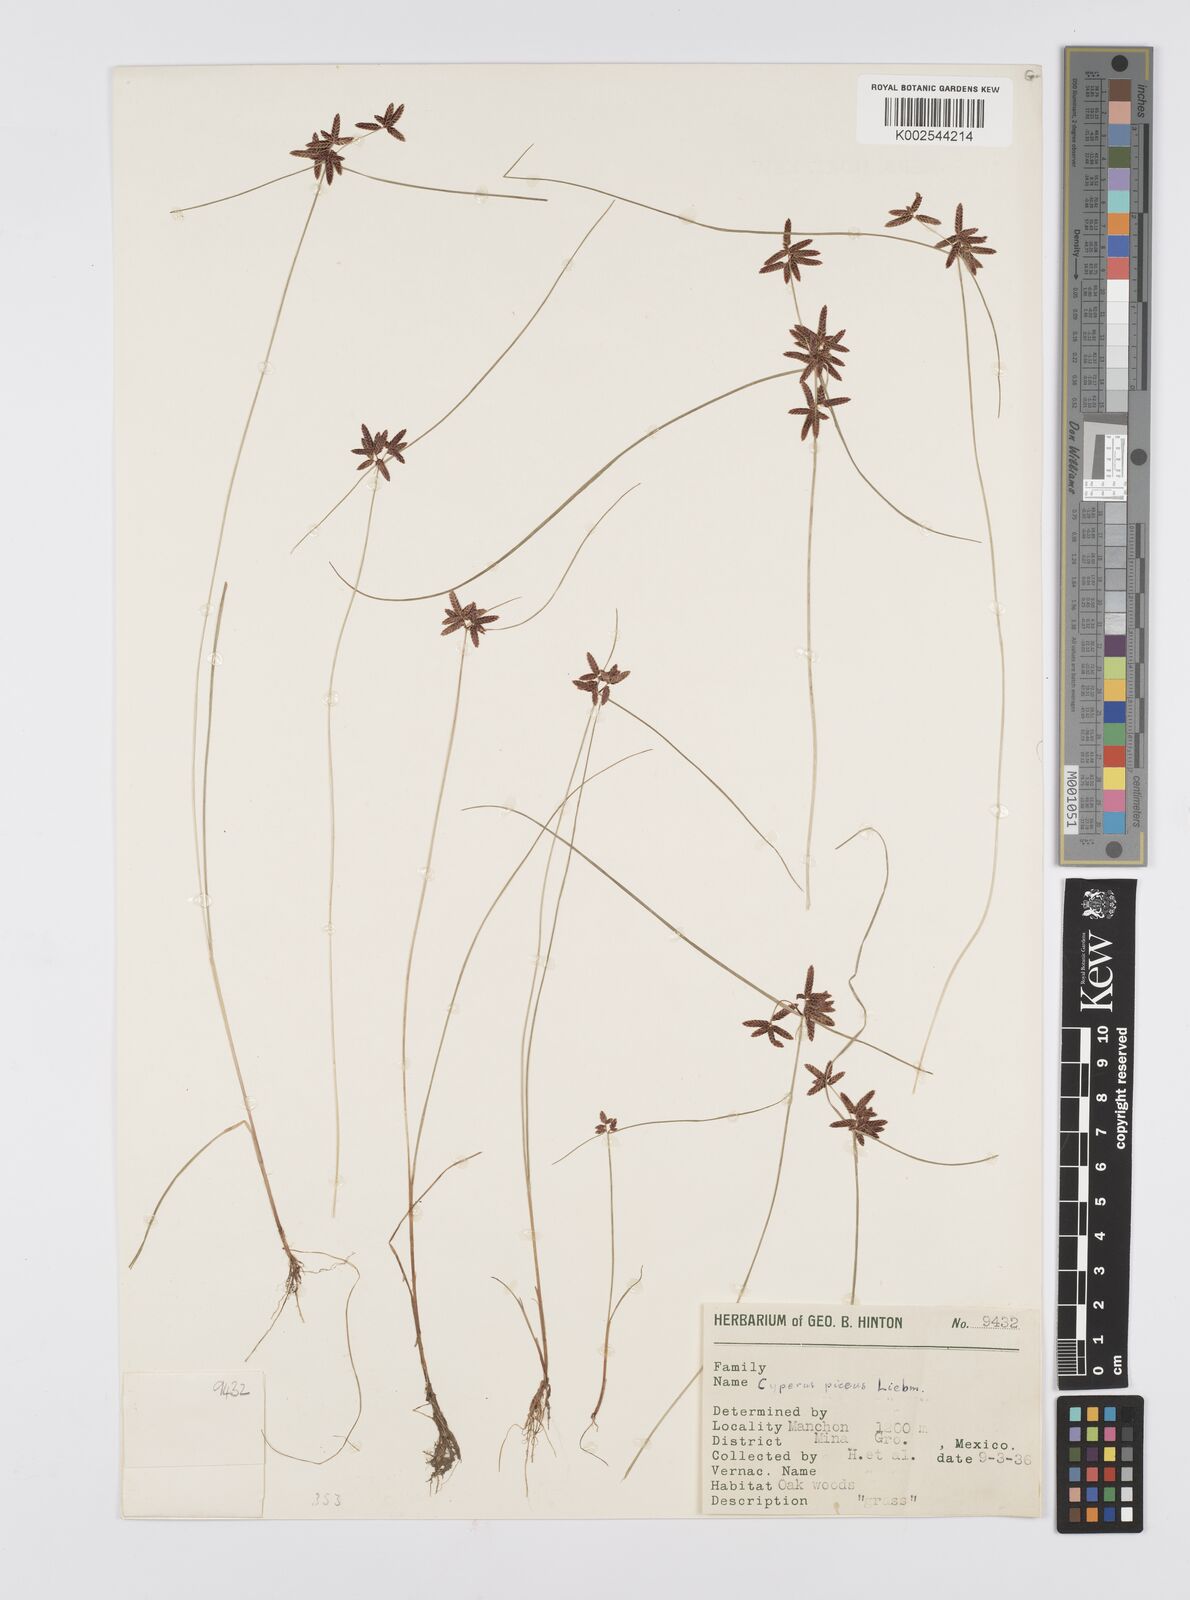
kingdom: Plantae
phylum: Tracheophyta
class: Liliopsida
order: Poales
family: Cyperaceae
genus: Cyperus
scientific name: Cyperus flavescens
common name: Yellow galingale
